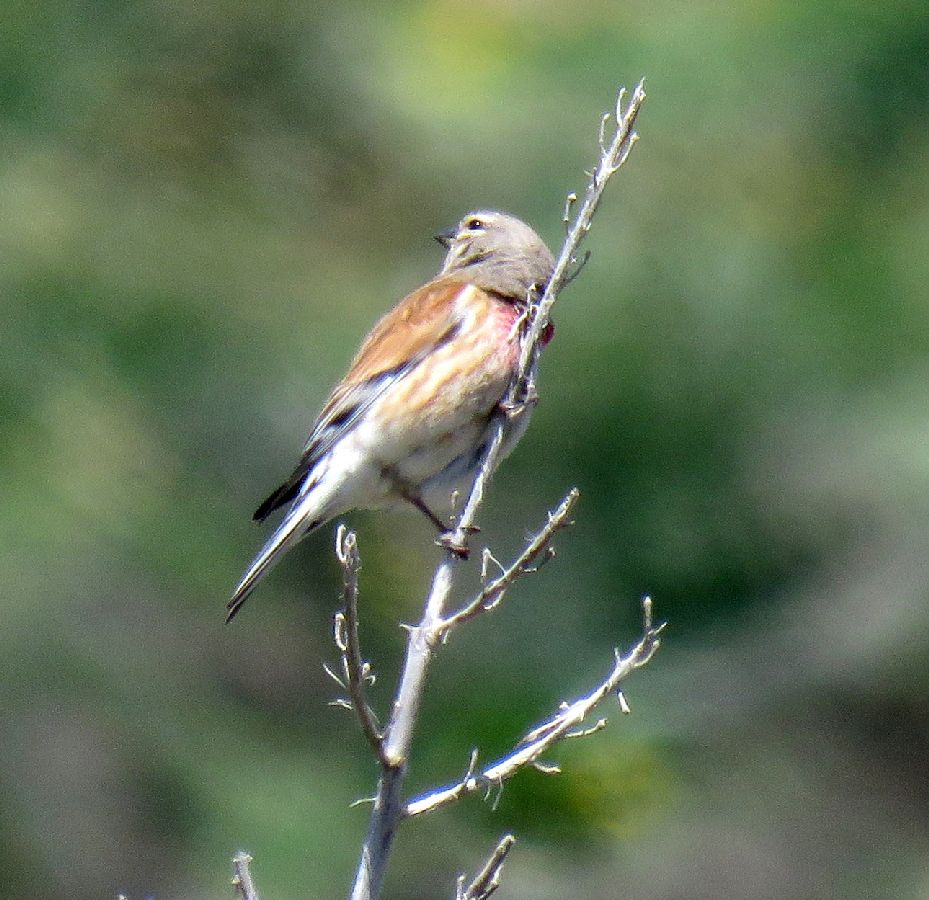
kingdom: Animalia
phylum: Chordata
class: Aves
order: Passeriformes
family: Fringillidae
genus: Linaria
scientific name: Linaria cannabina
